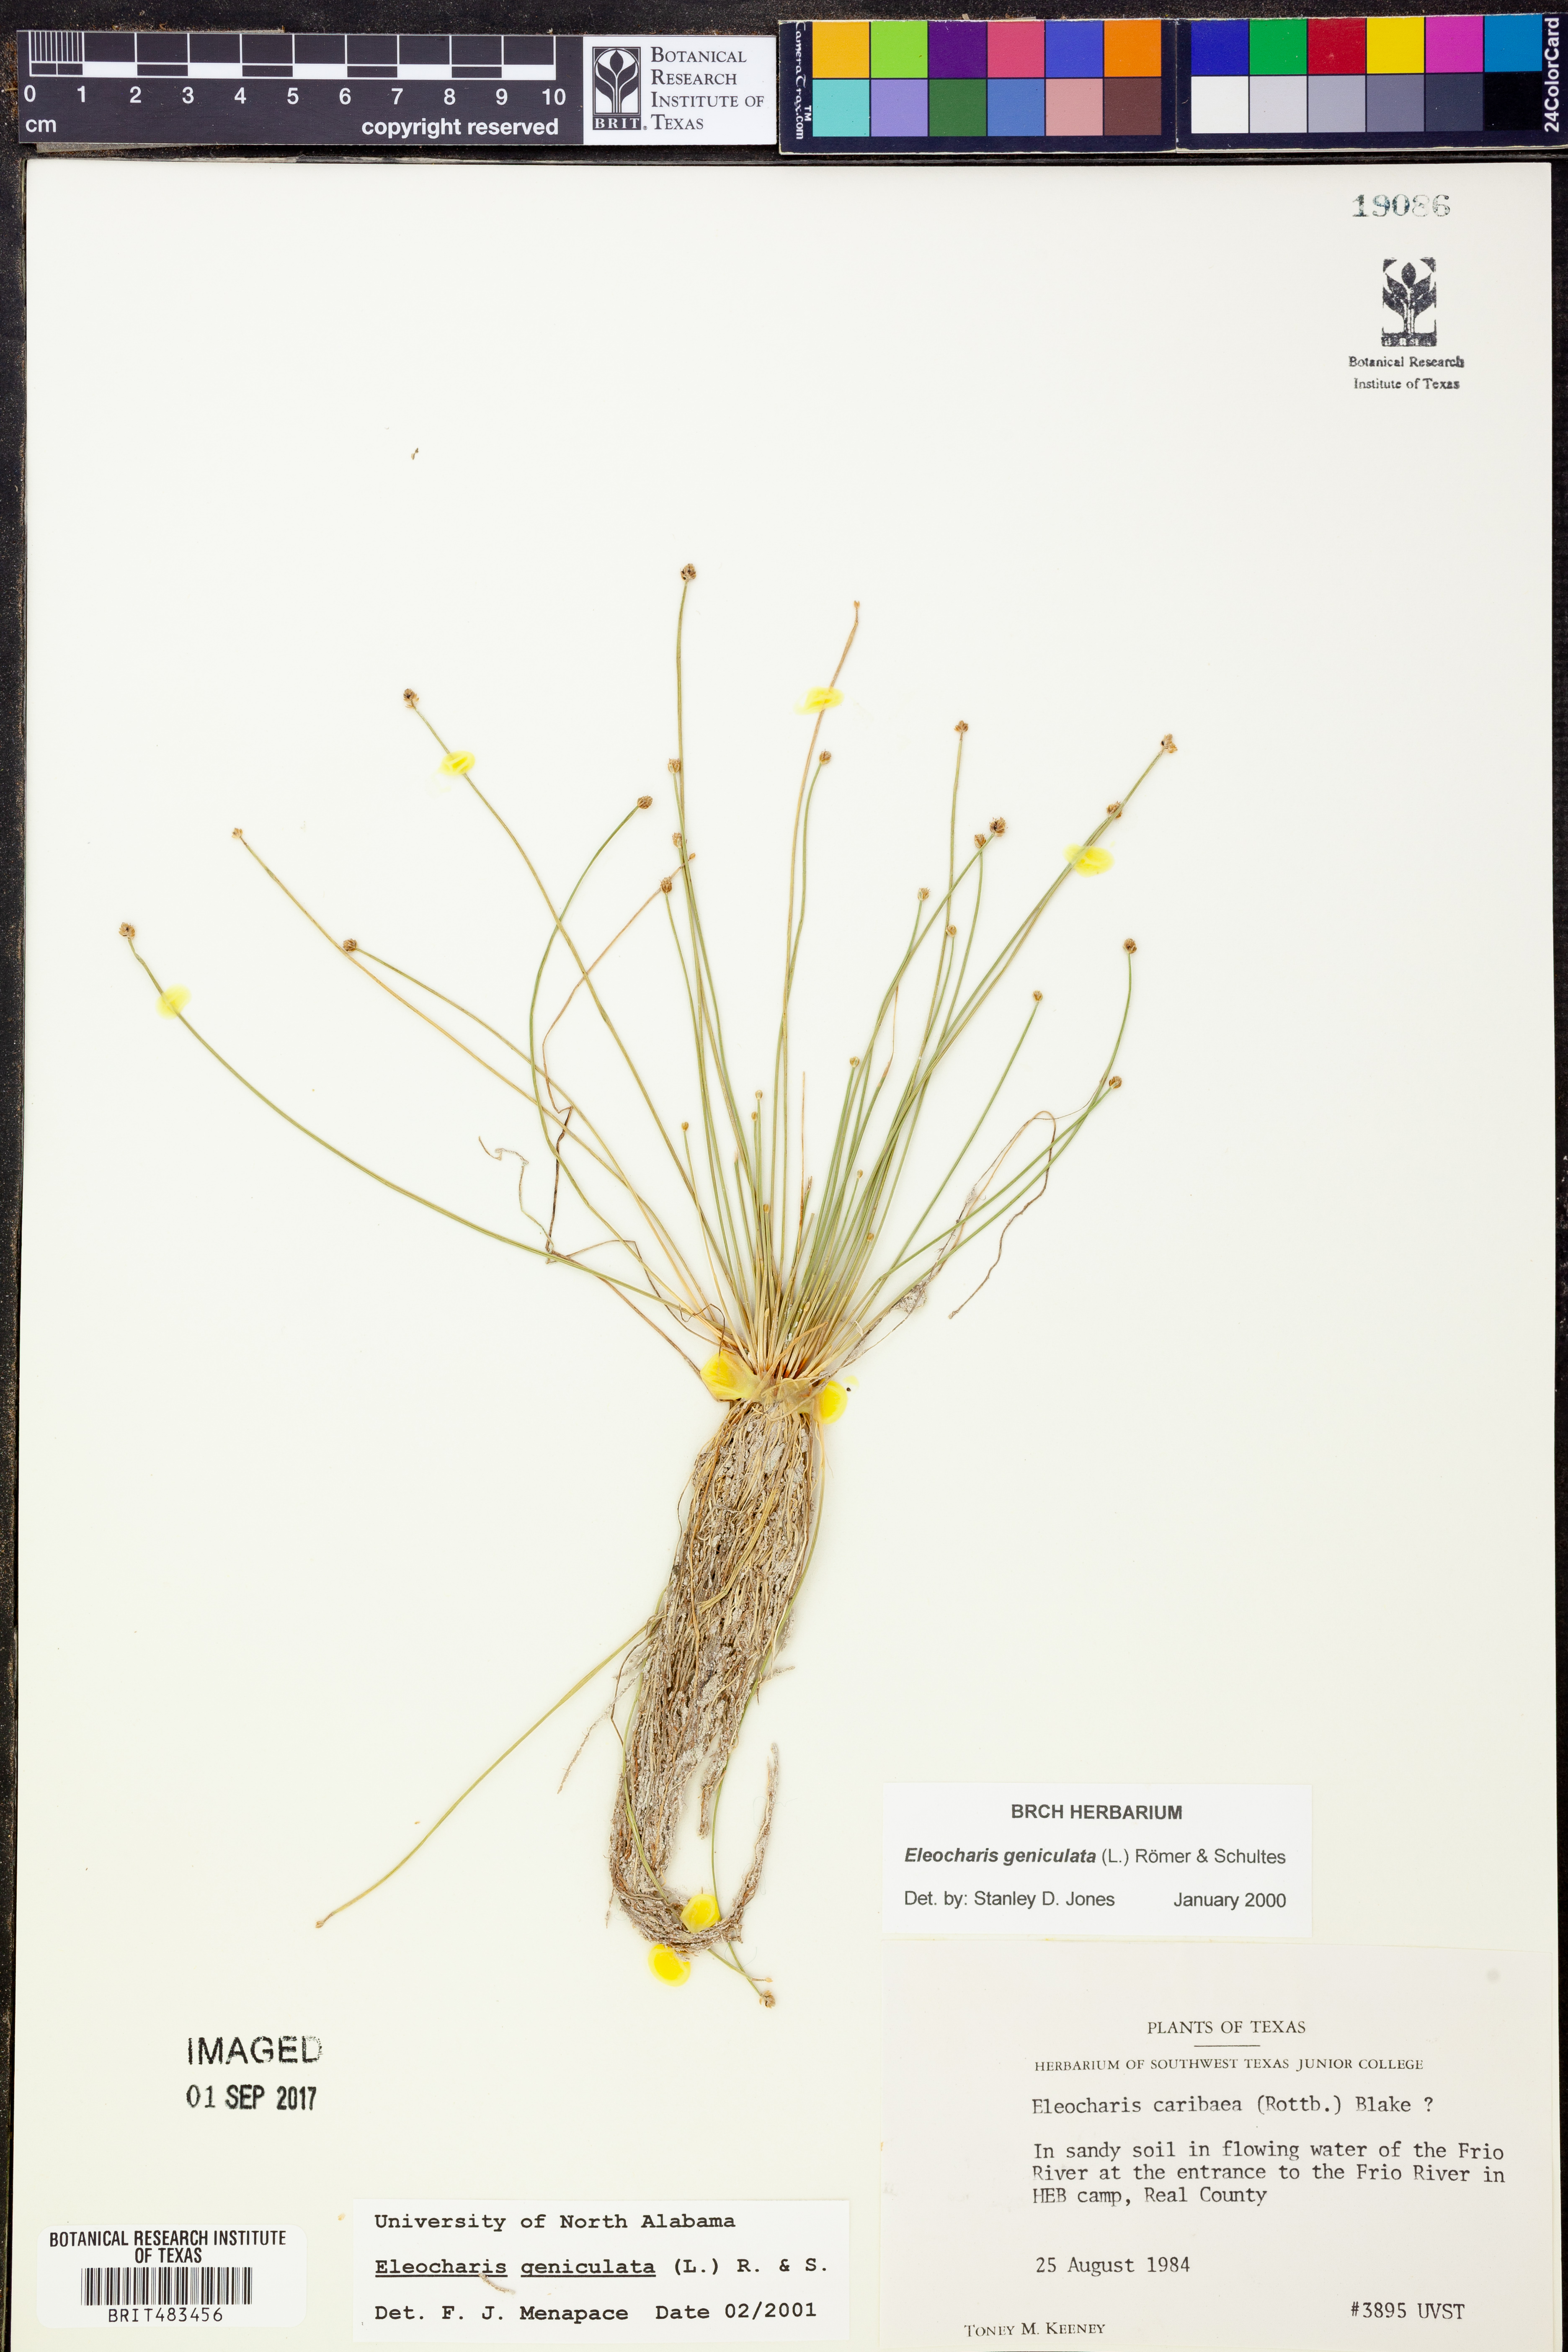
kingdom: Plantae
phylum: Tracheophyta
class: Liliopsida
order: Poales
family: Cyperaceae
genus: Eleocharis
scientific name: Eleocharis geniculata
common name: Canada spikesedge
